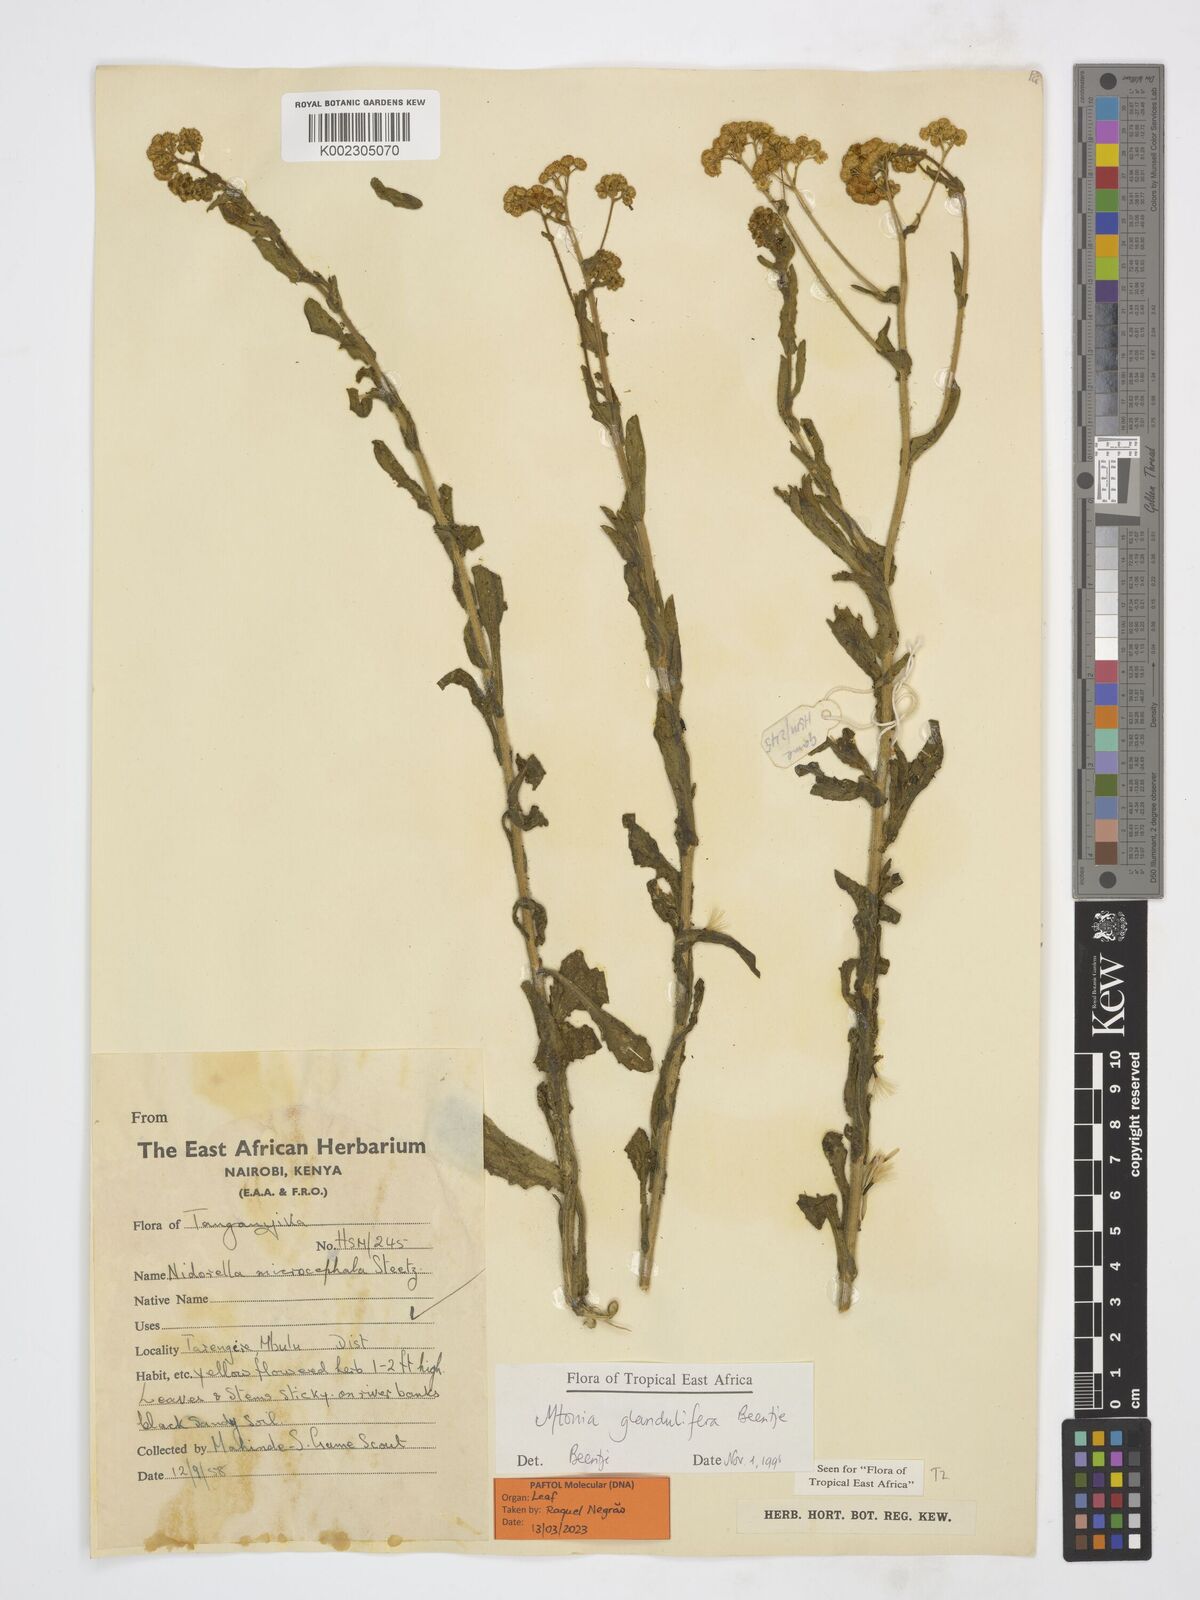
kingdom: Plantae
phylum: Tracheophyta
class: Magnoliopsida
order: Asterales
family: Asteraceae
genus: Mtonia
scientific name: Mtonia glandulifera
